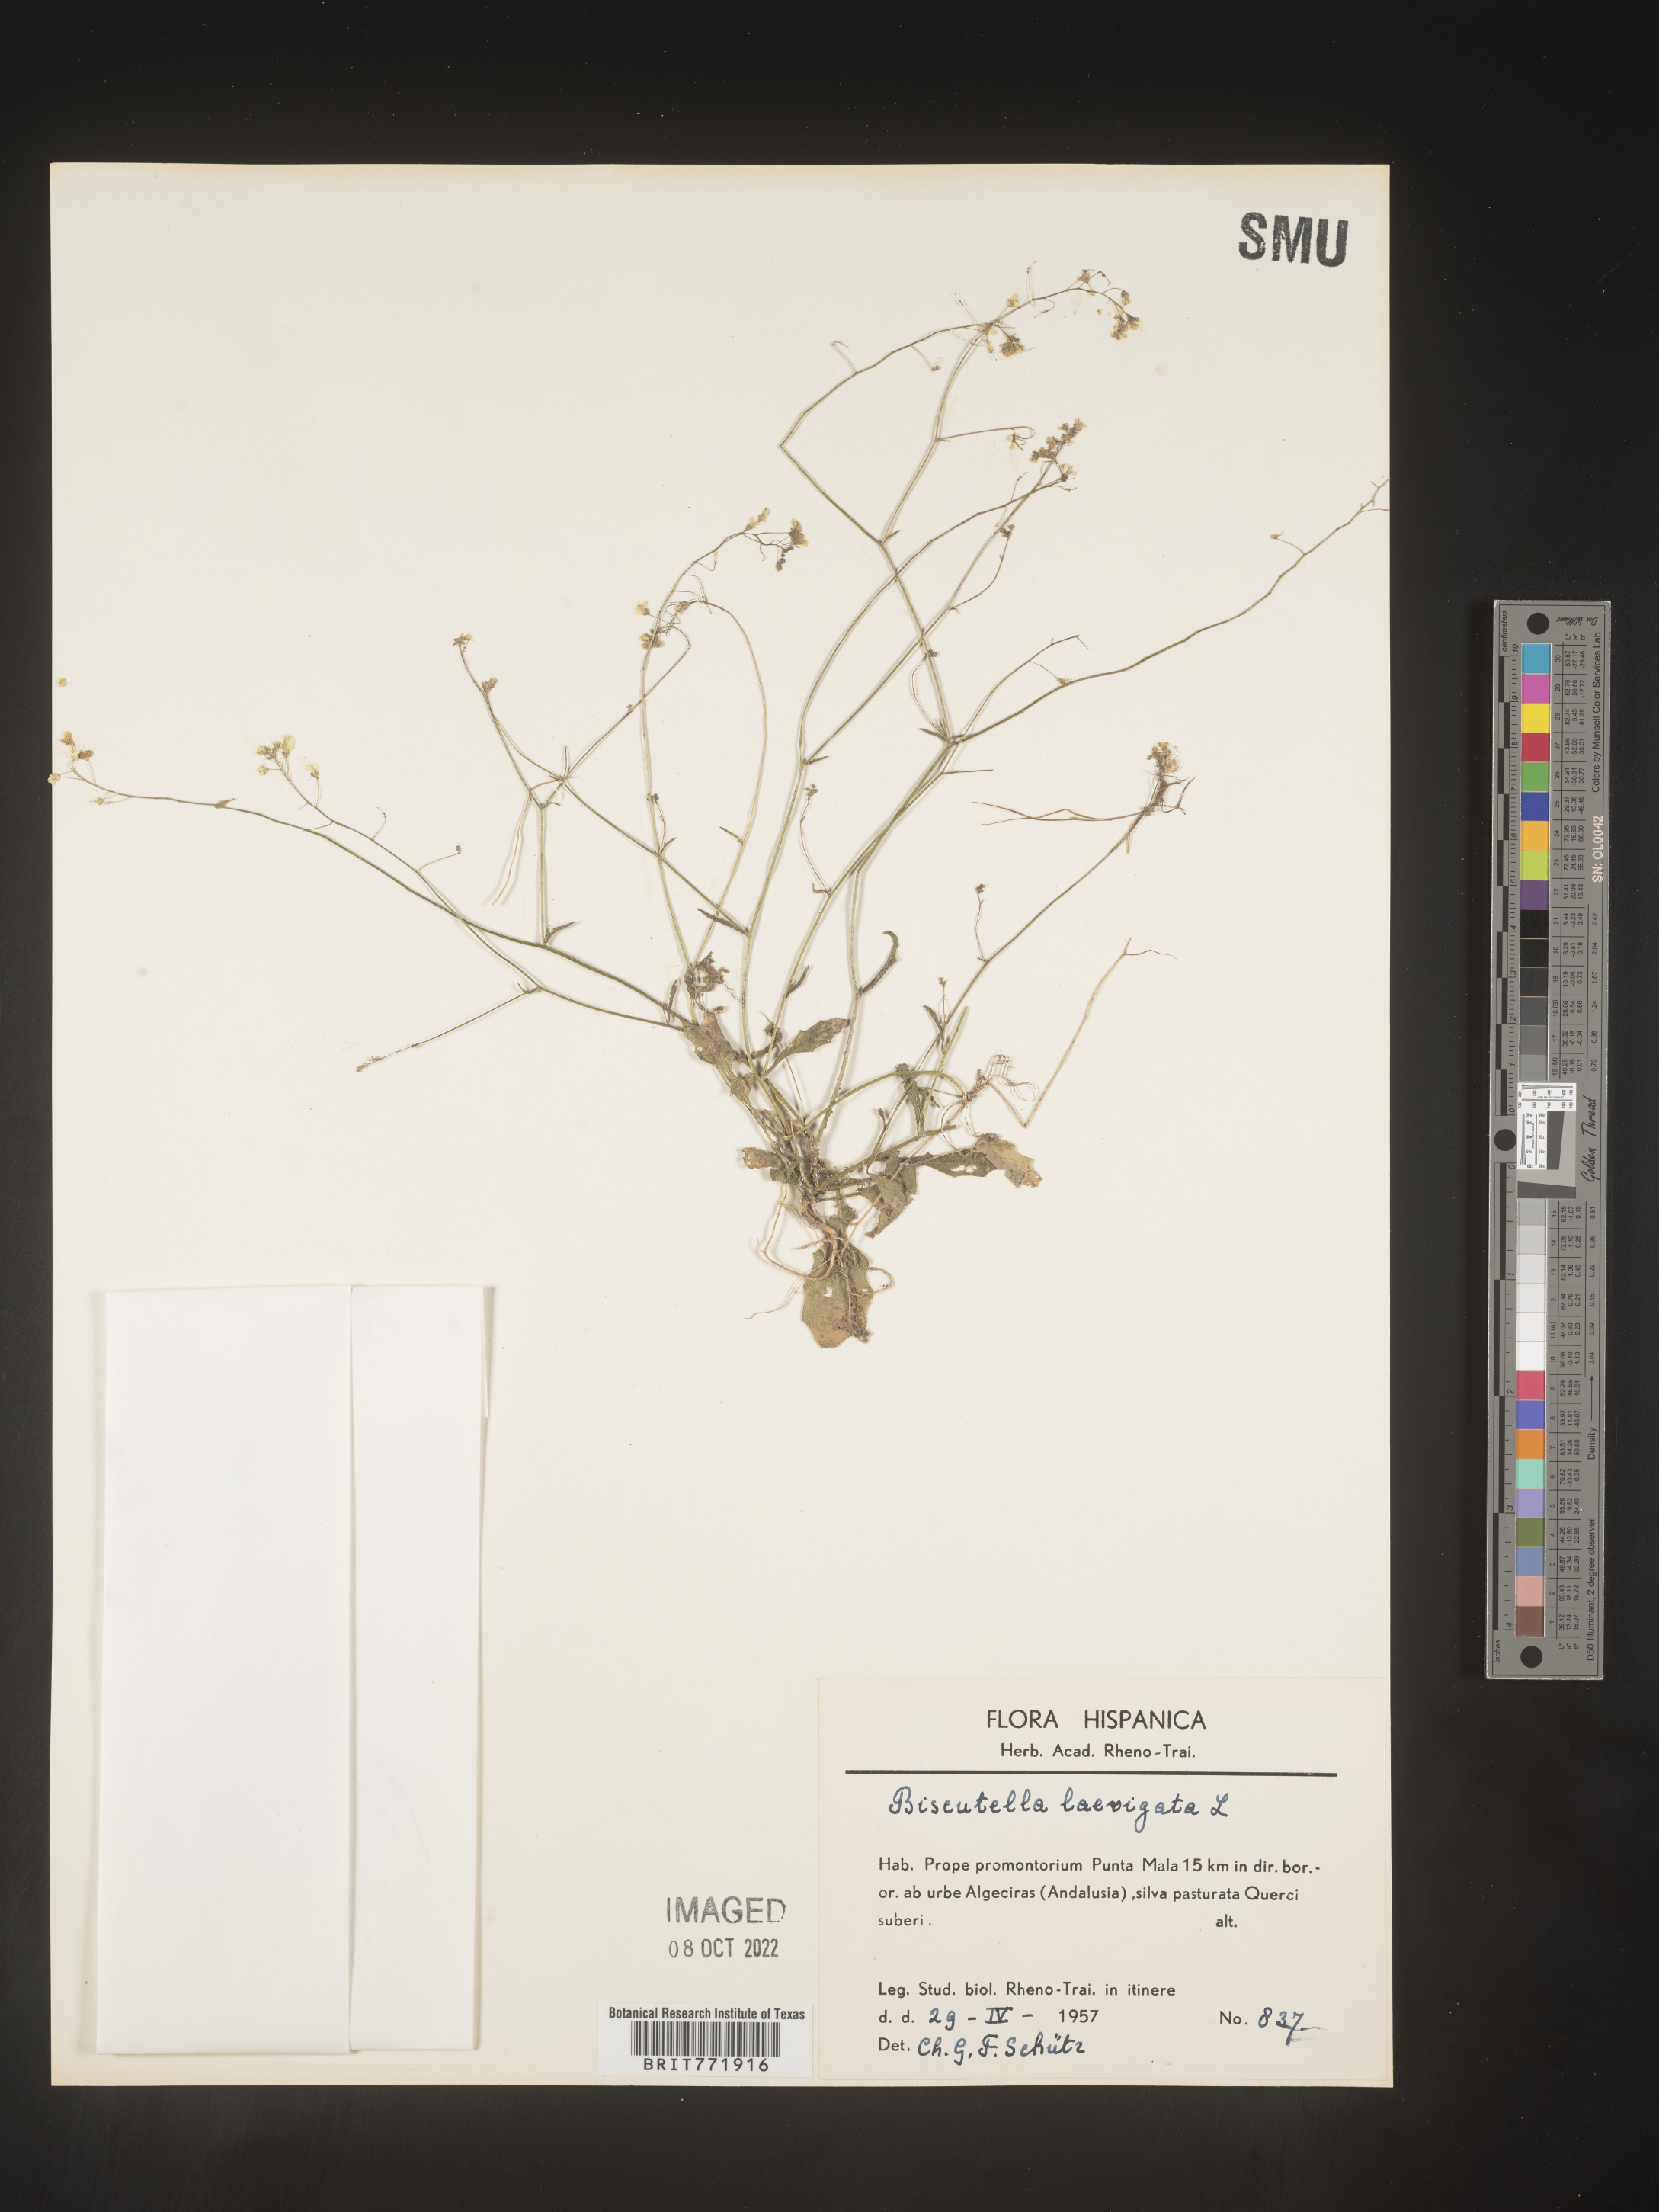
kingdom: Plantae
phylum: Tracheophyta
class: Magnoliopsida
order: Brassicales
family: Brassicaceae
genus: Biscutella
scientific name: Biscutella
